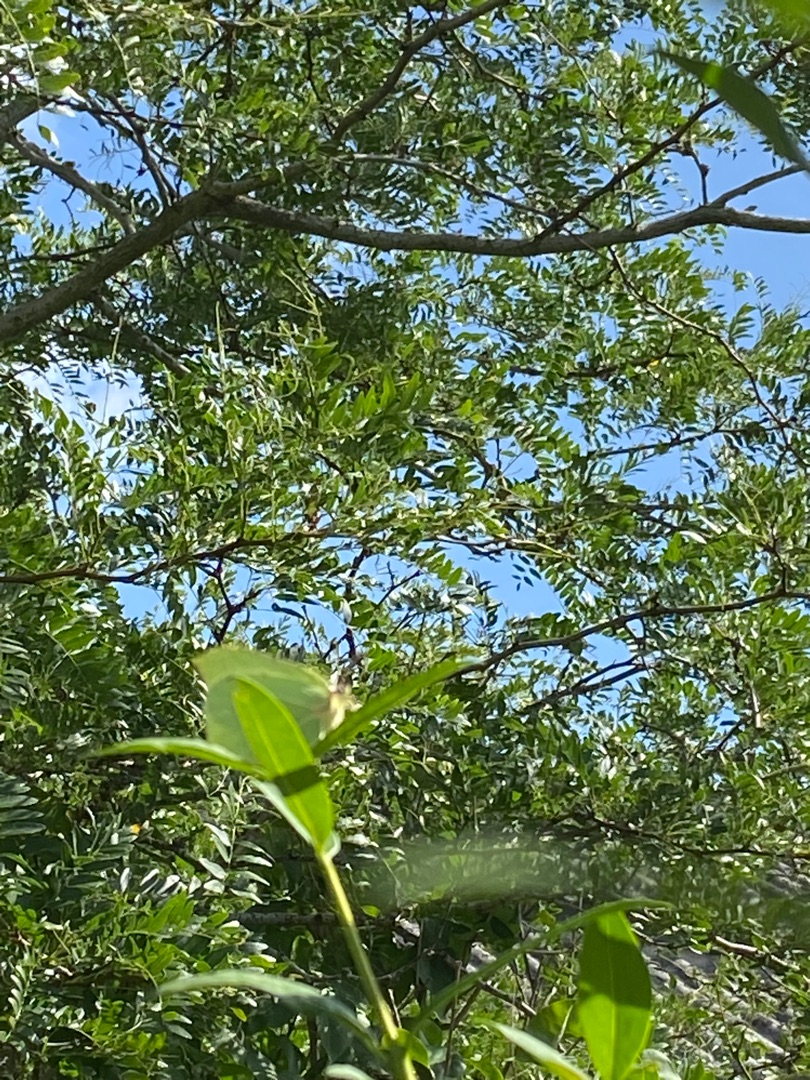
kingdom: Animalia
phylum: Arthropoda
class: Insecta
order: Lepidoptera
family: Pieridae
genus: Gonepteryx
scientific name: Gonepteryx rhamni
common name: Citronsommerfugl
